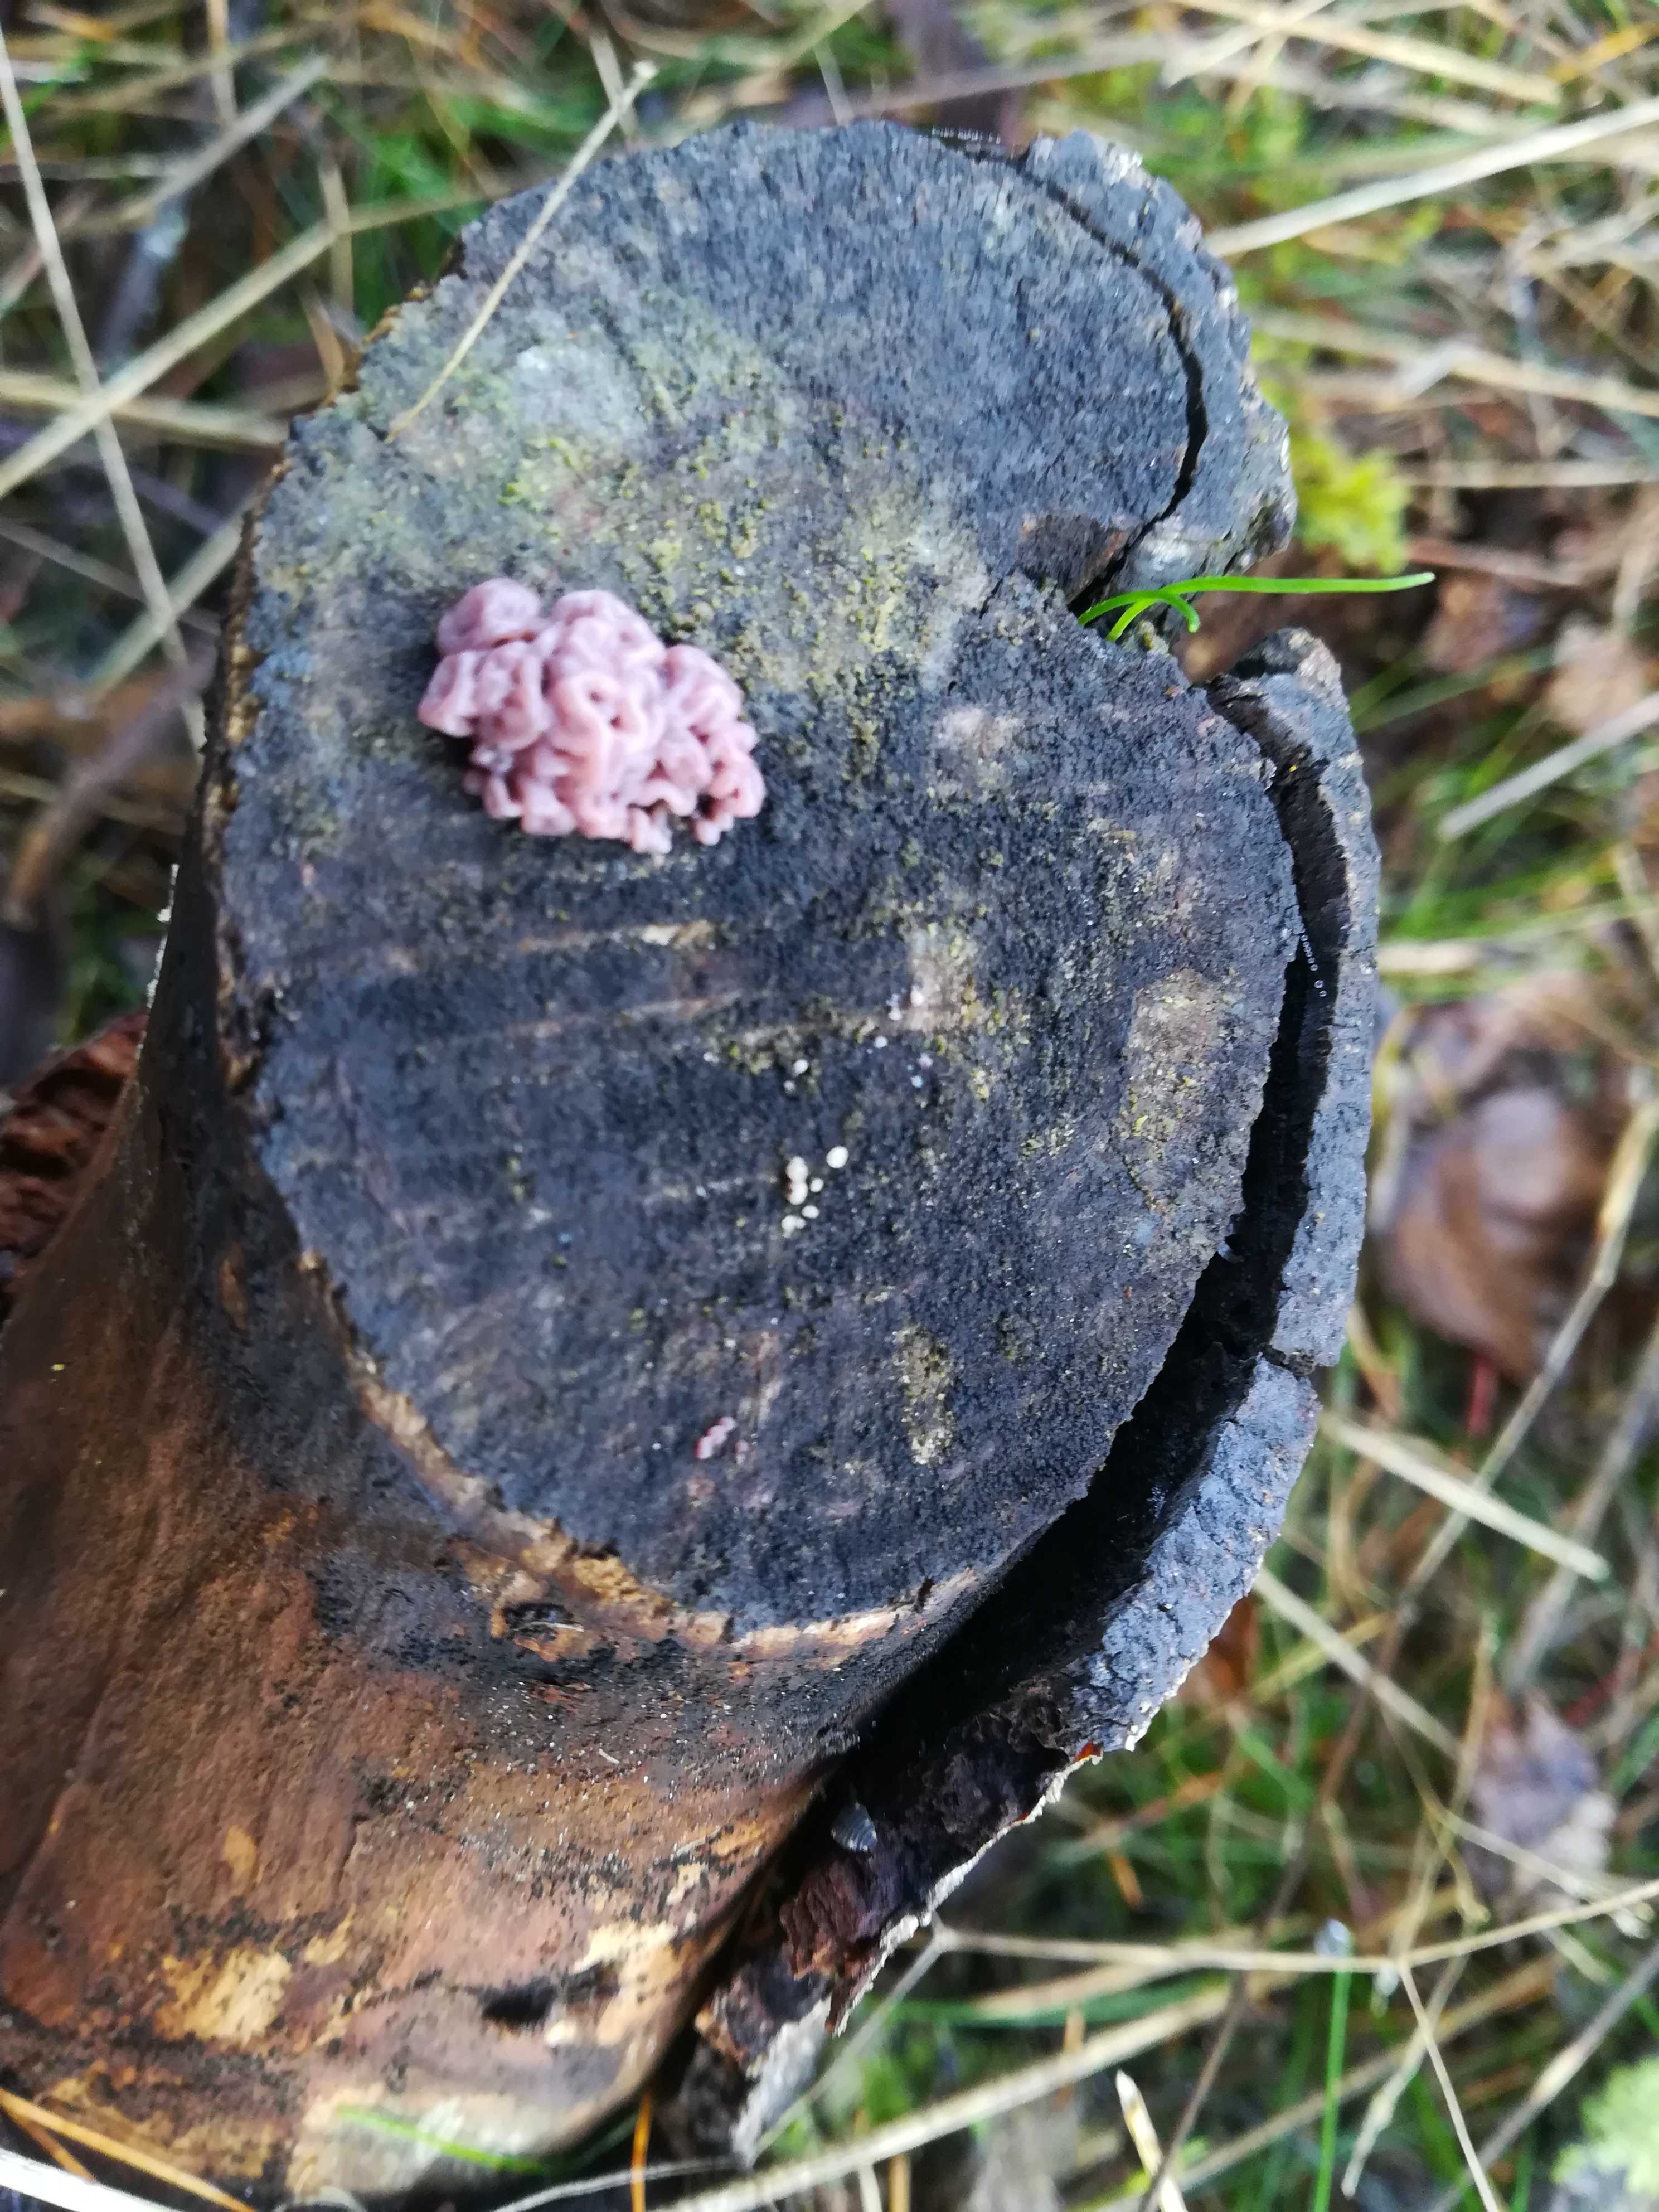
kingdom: Fungi
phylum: Ascomycota
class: Leotiomycetes
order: Helotiales
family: Gelatinodiscaceae
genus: Ascocoryne
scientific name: Ascocoryne sarcoides
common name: rødlilla sejskive
